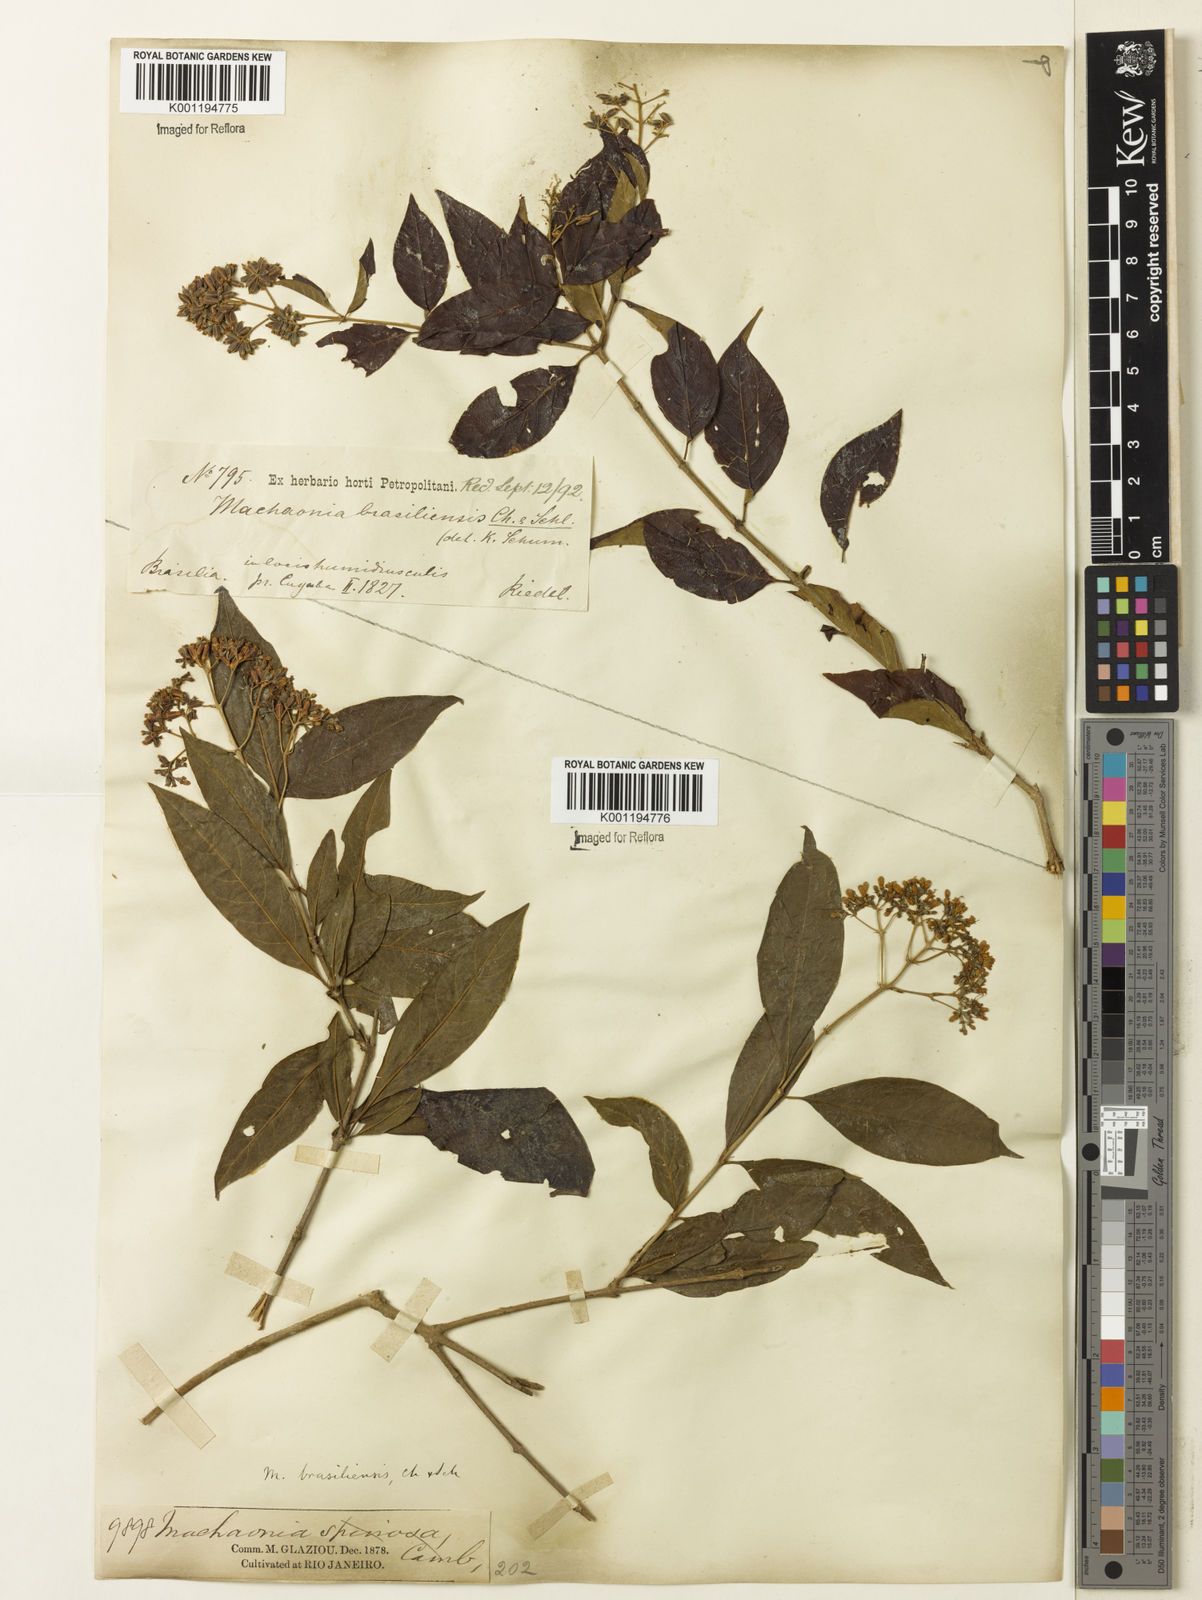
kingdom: Plantae
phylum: Tracheophyta
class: Magnoliopsida
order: Gentianales
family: Rubiaceae
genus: Machaonia
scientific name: Machaonia brasiliensis
